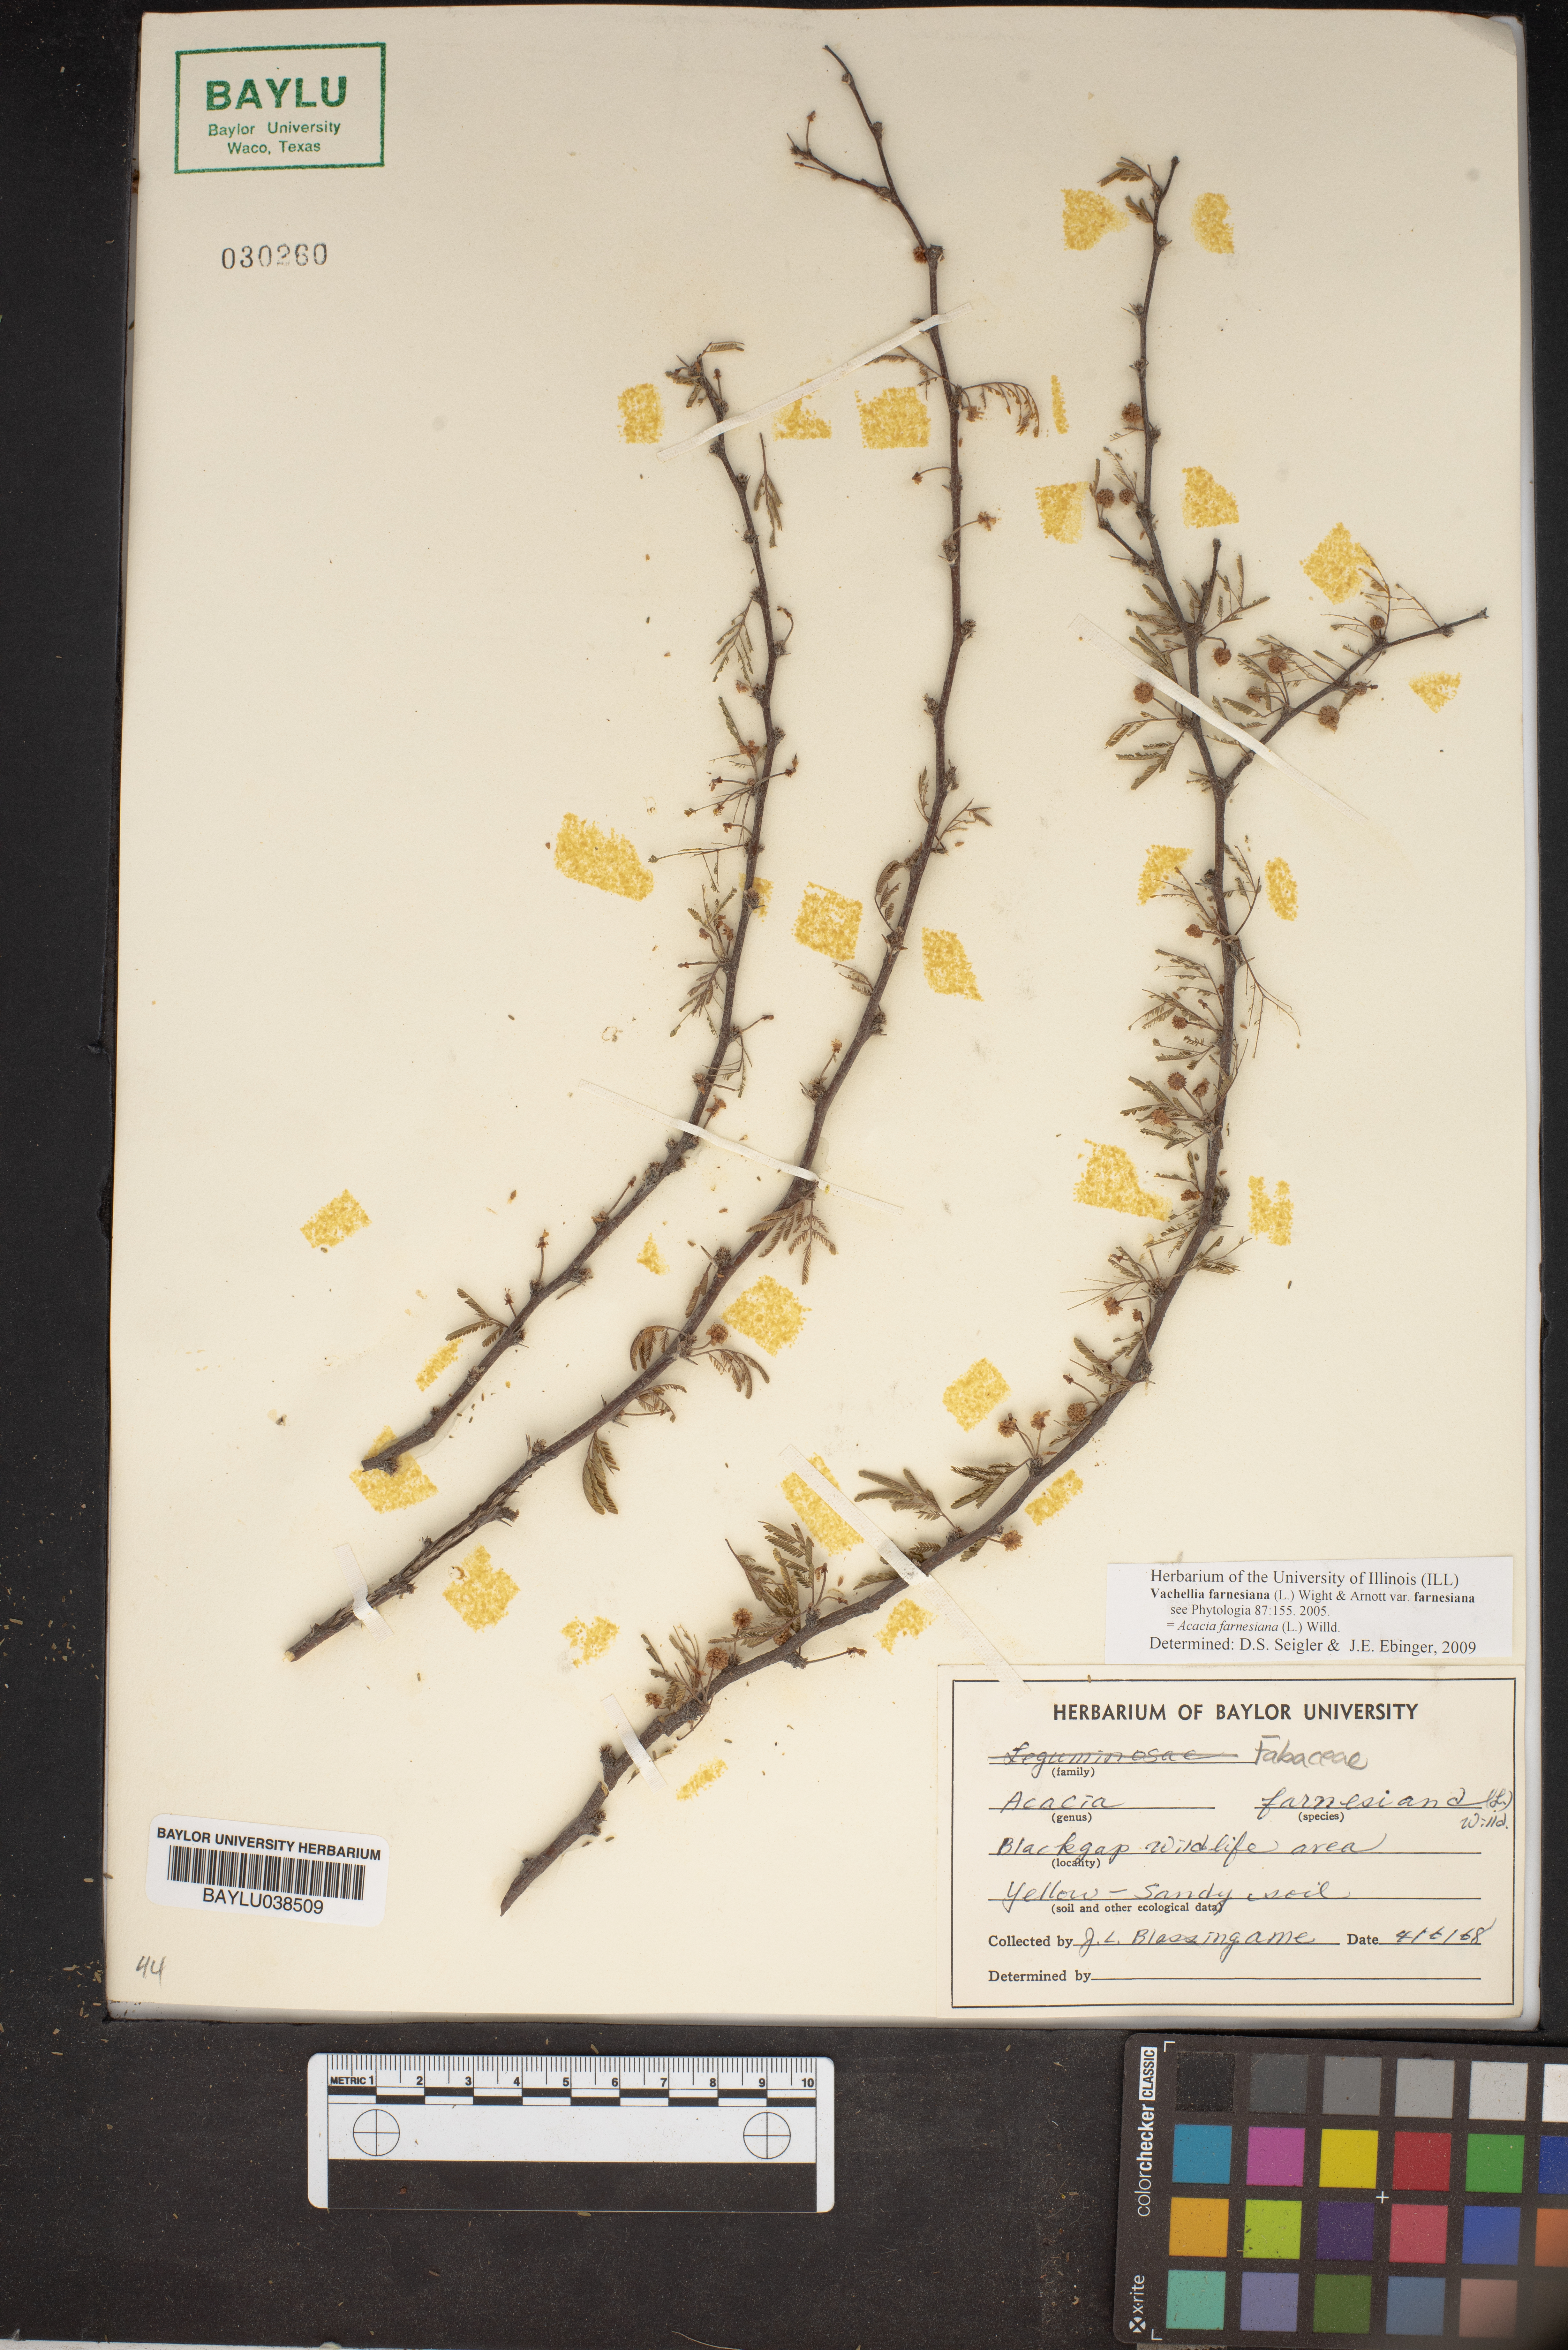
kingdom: Plantae
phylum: Tracheophyta
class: Magnoliopsida
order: Fabales
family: Fabaceae
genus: Vachellia
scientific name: Vachellia farnesiana
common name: Sweet acacia
